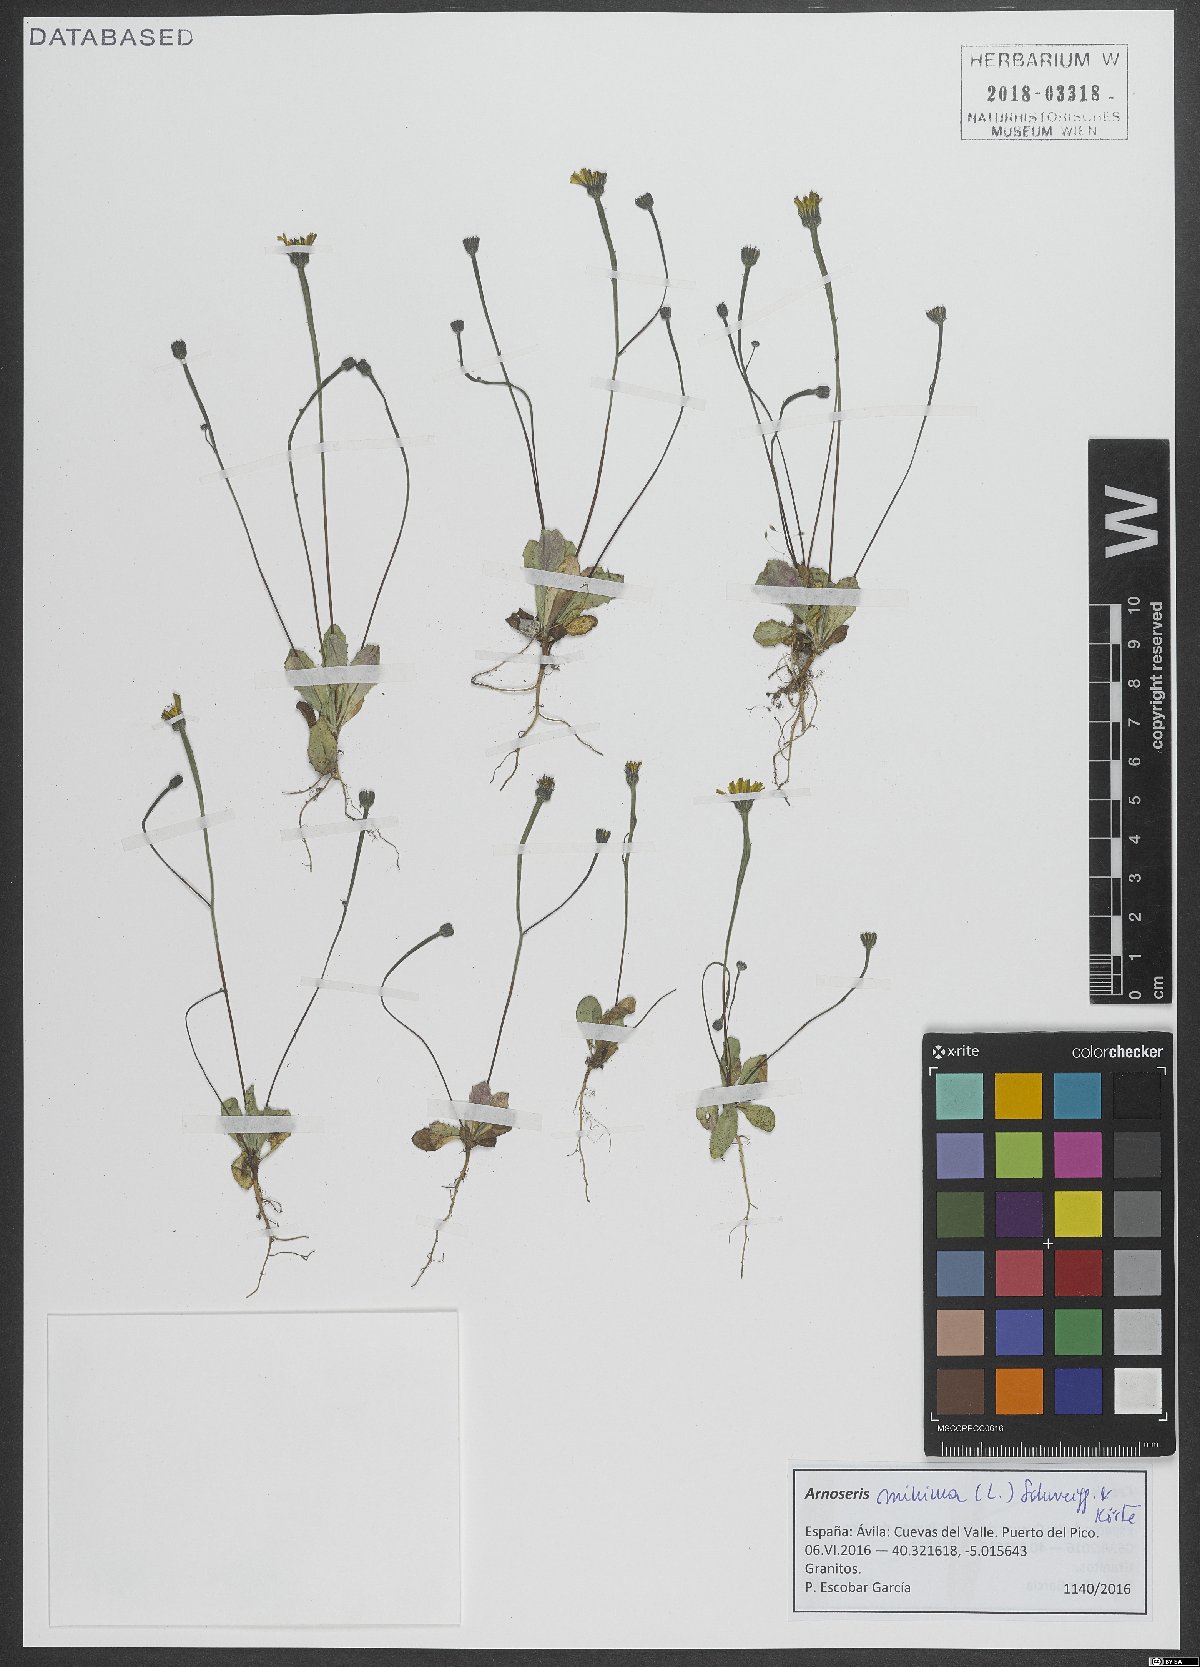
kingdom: Plantae
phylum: Tracheophyta
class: Magnoliopsida
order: Asterales
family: Asteraceae
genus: Arnoseris
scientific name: Arnoseris minima
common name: Lamb's succory
